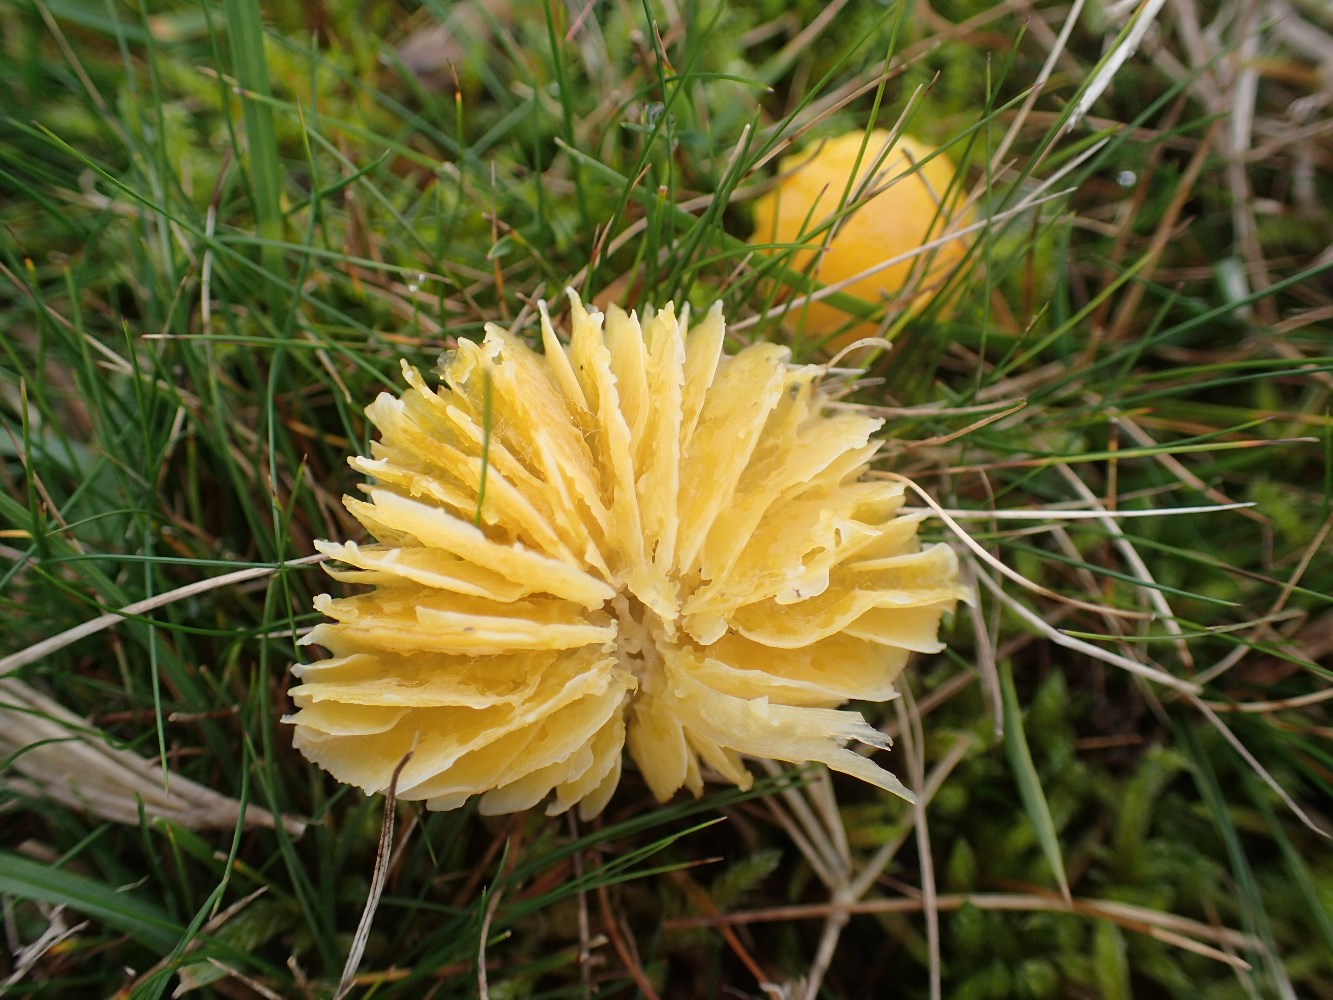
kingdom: Fungi
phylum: Basidiomycota
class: Agaricomycetes
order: Agaricales
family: Hygrophoraceae
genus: Hygrocybe
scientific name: Hygrocybe chlorophana
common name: gul vokshat
